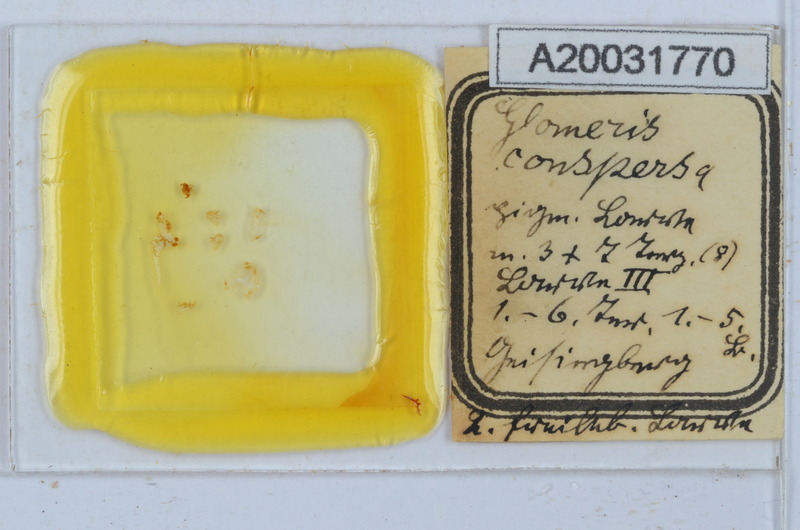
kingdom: Animalia
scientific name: Animalia
